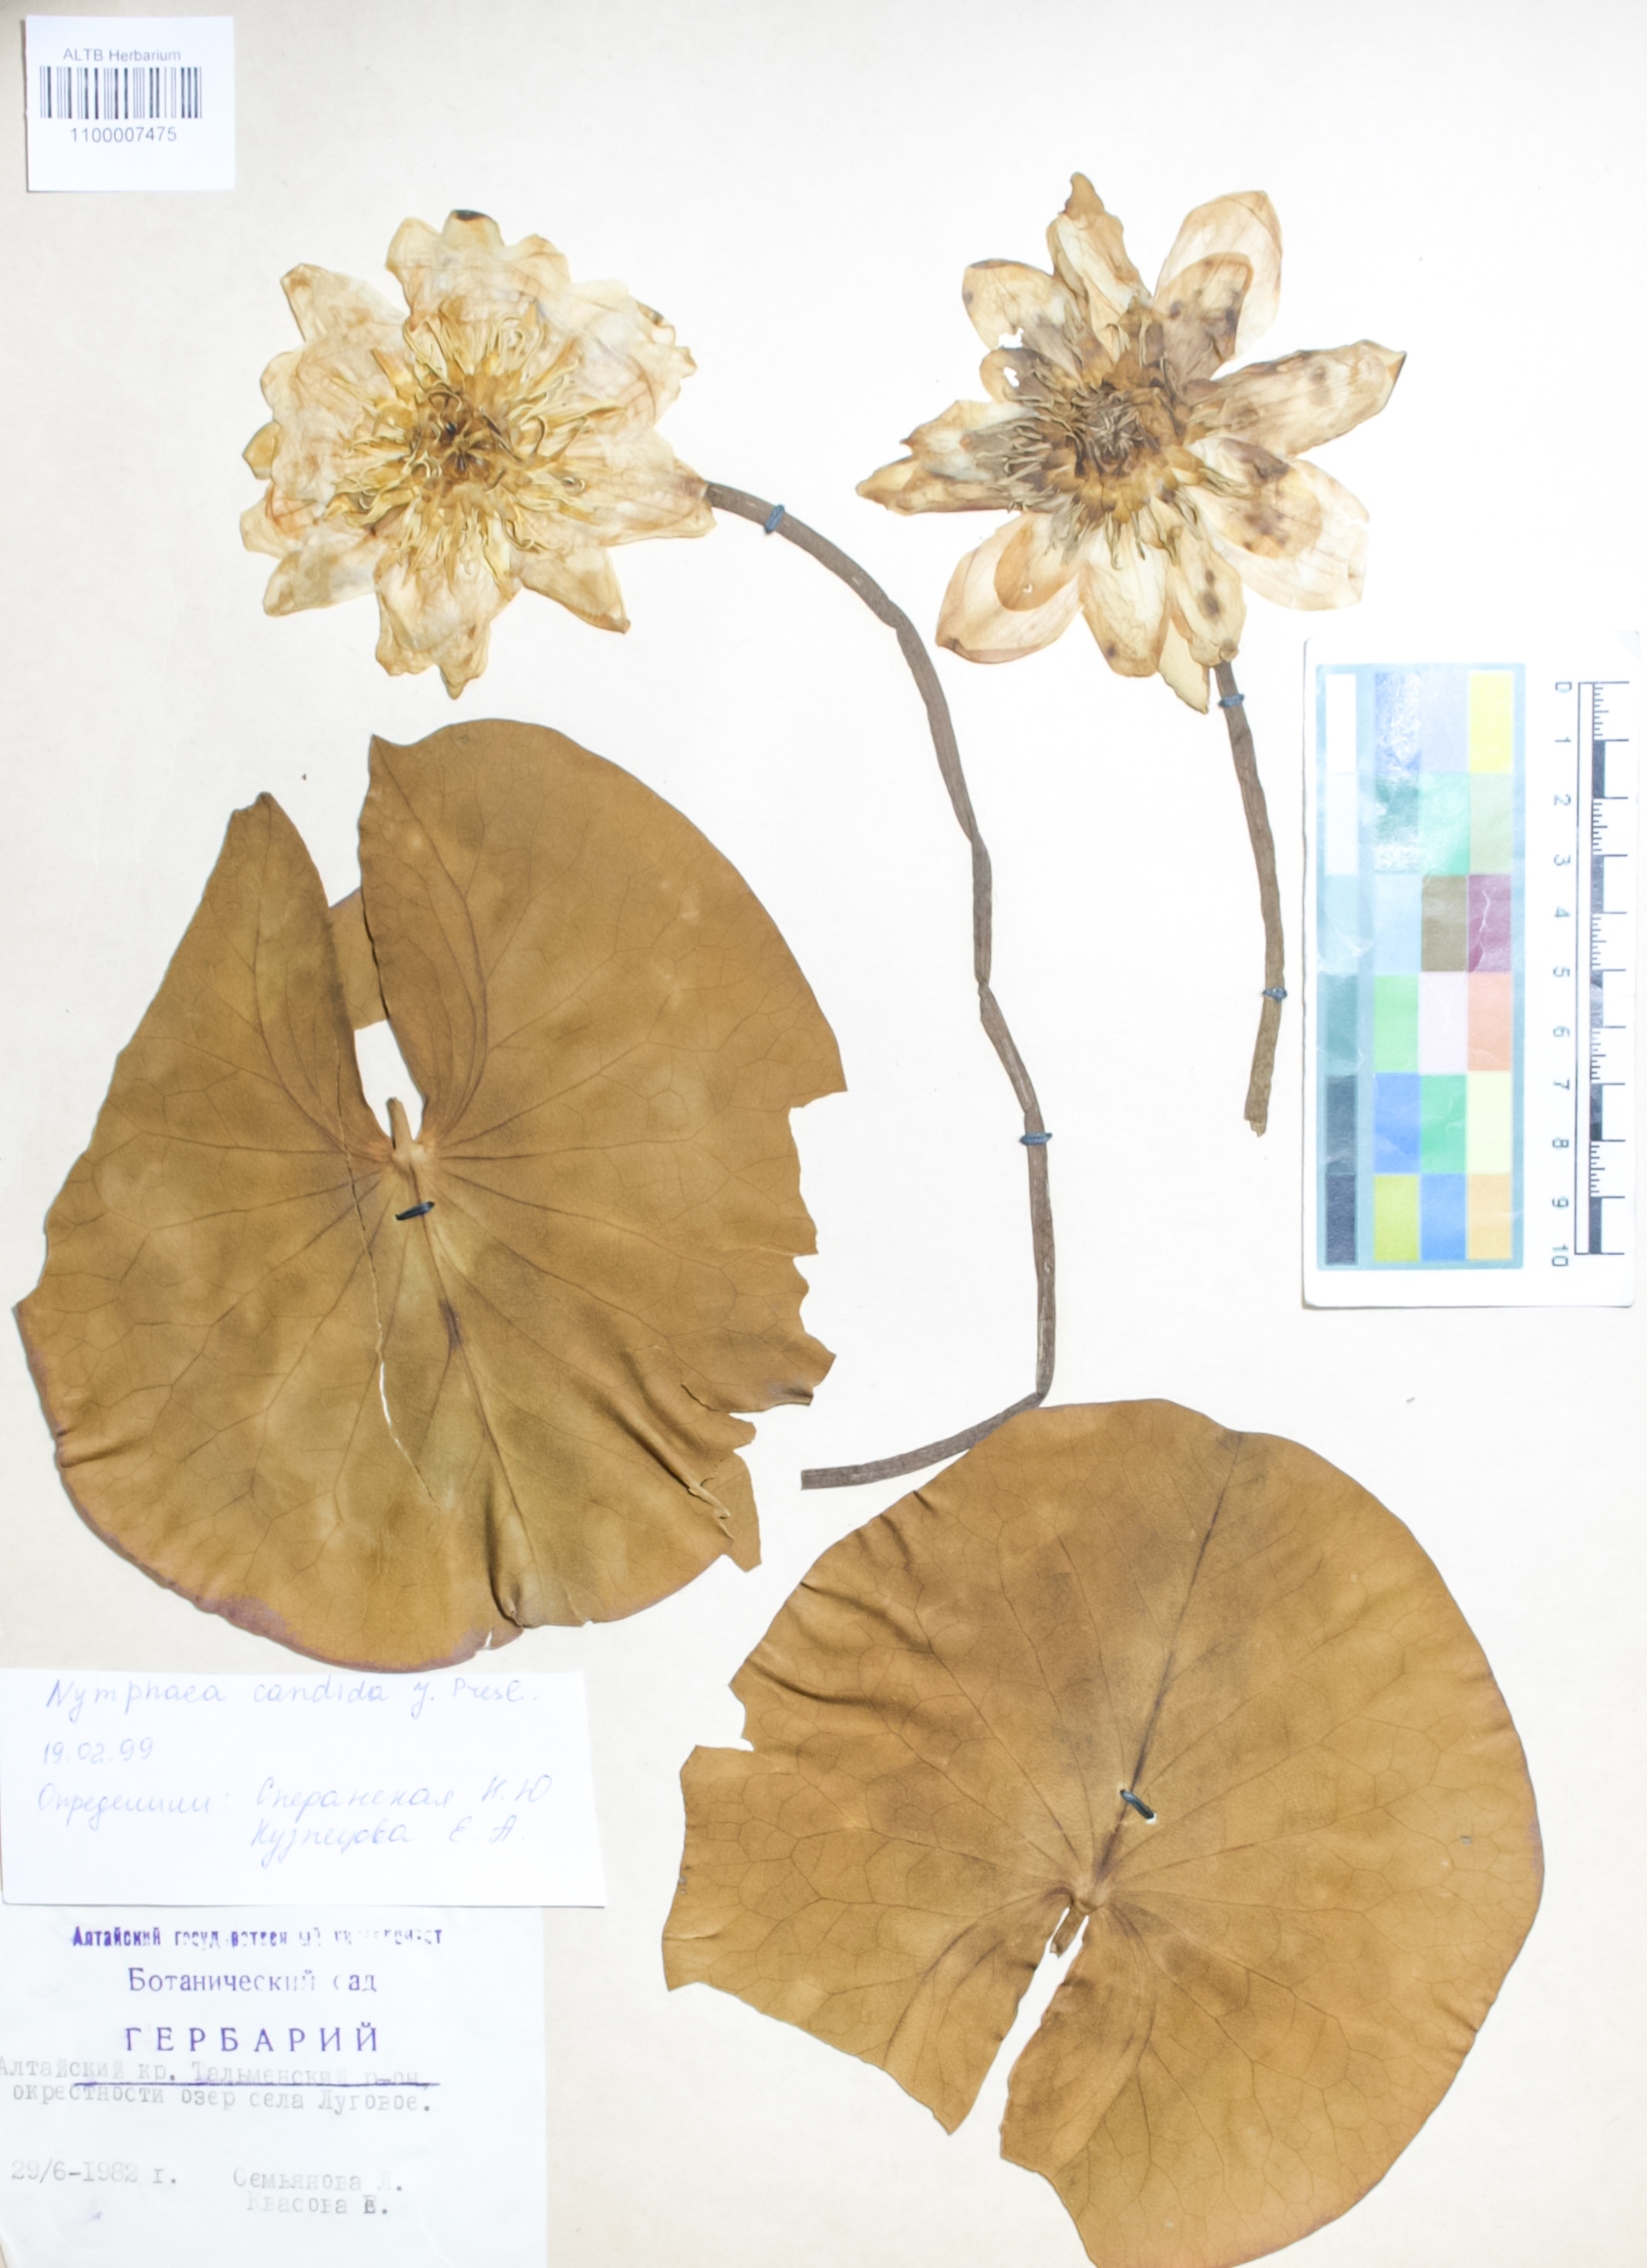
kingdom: Plantae
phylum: Tracheophyta
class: Magnoliopsida
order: Nymphaeales
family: Nymphaeaceae
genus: Nymphaea
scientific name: Nymphaea candida
